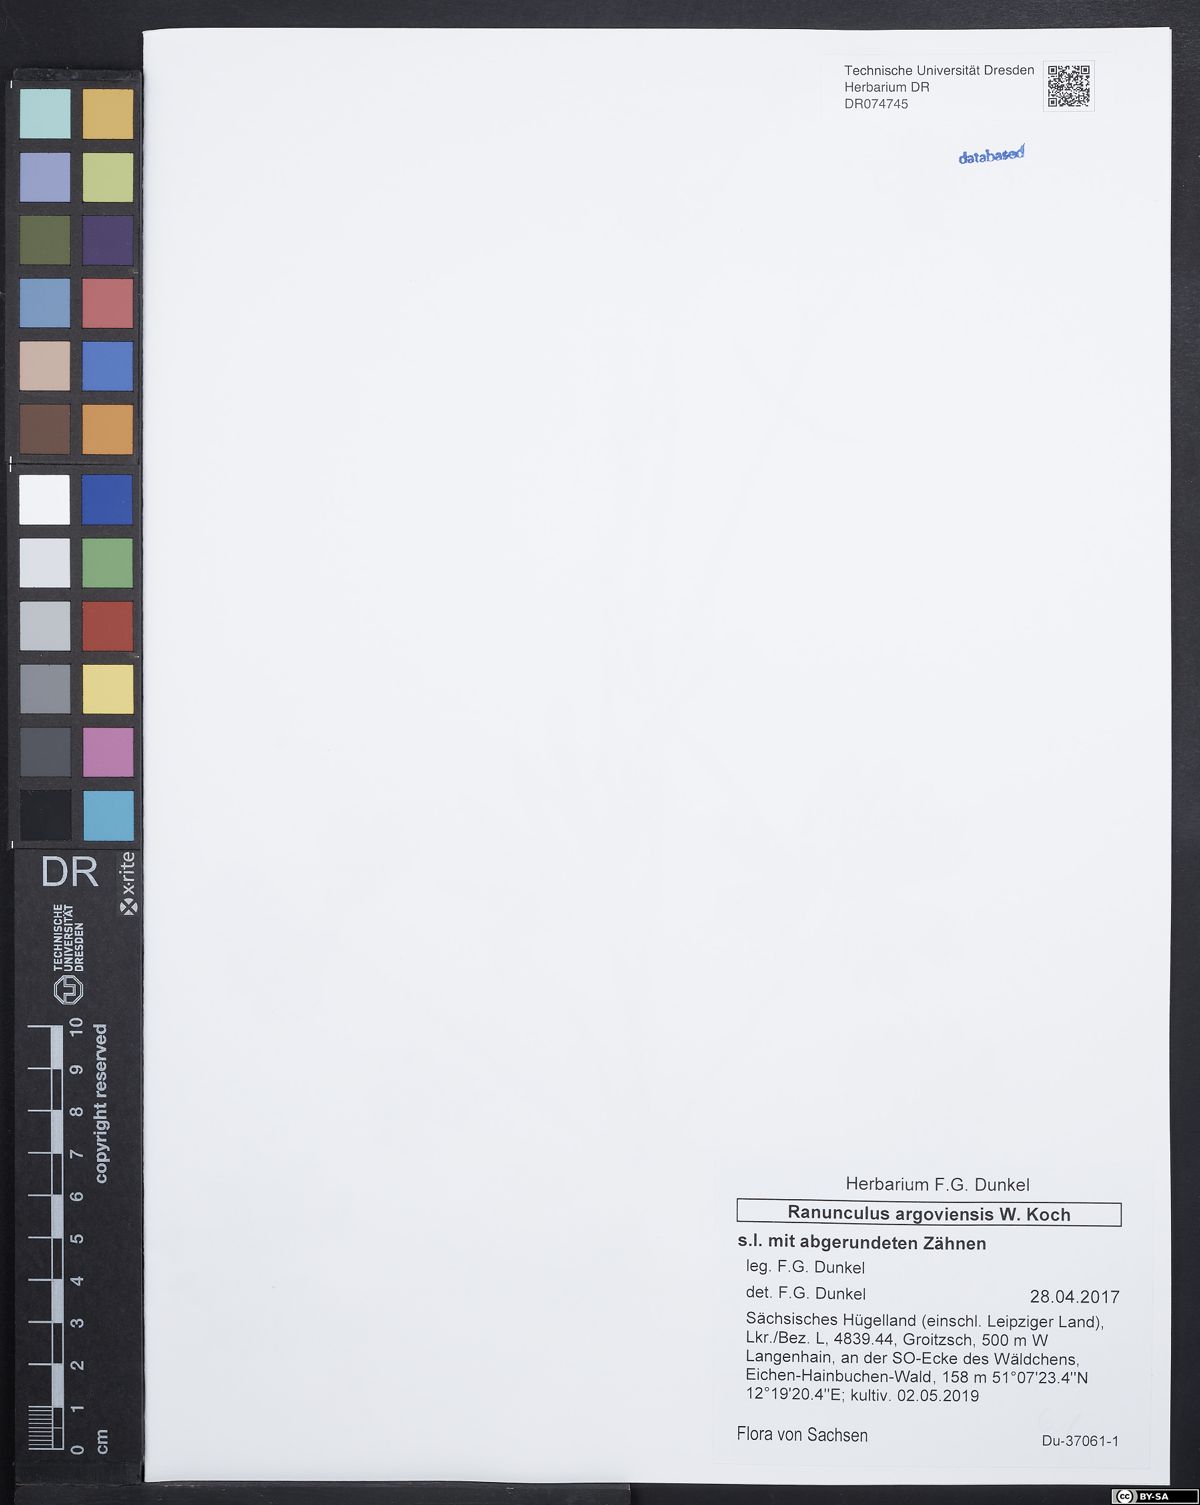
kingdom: Plantae
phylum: Tracheophyta
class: Magnoliopsida
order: Ranunculales
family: Ranunculaceae
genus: Ranunculus
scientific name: Ranunculus argoviensis
